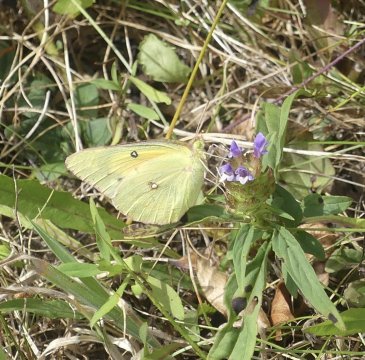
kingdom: Animalia
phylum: Arthropoda
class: Insecta
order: Lepidoptera
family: Pieridae
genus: Colias
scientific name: Colias eurytheme
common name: Orange Sulphur
